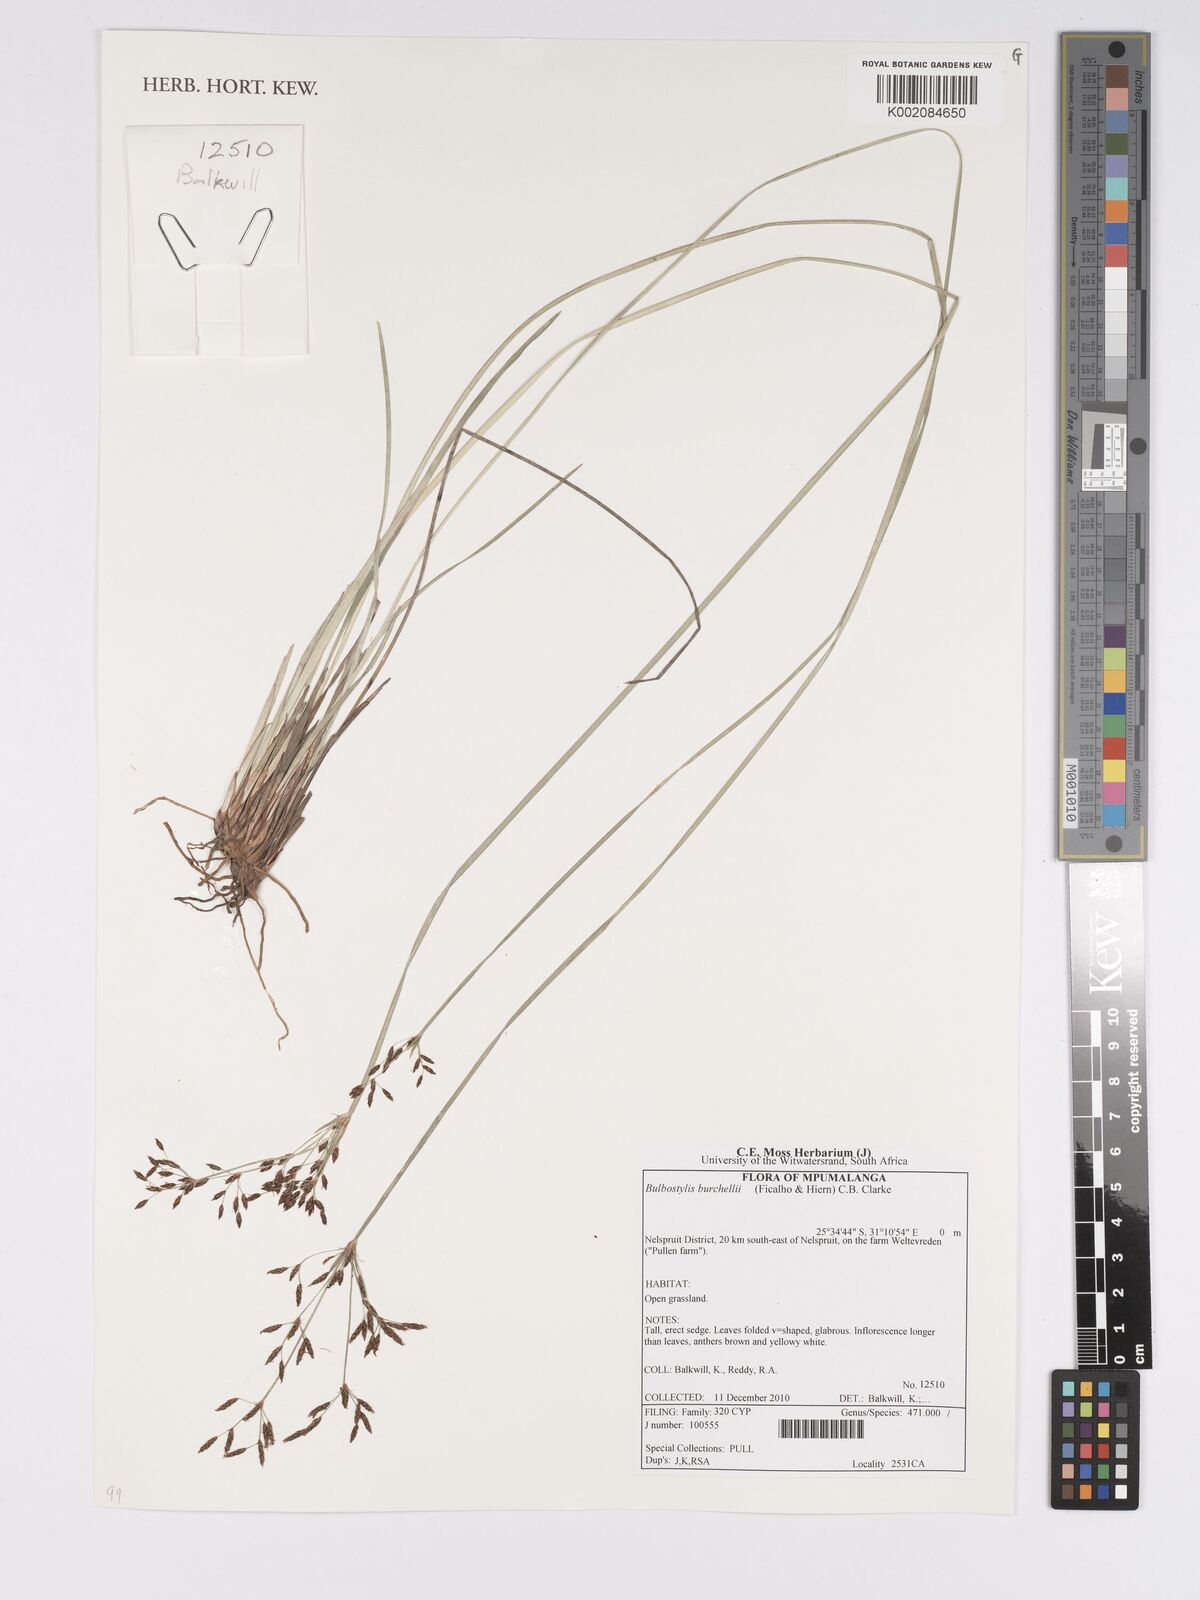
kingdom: Plantae
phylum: Tracheophyta
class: Liliopsida
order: Poales
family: Cyperaceae
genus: Bulbostylis
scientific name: Bulbostylis burchellii
